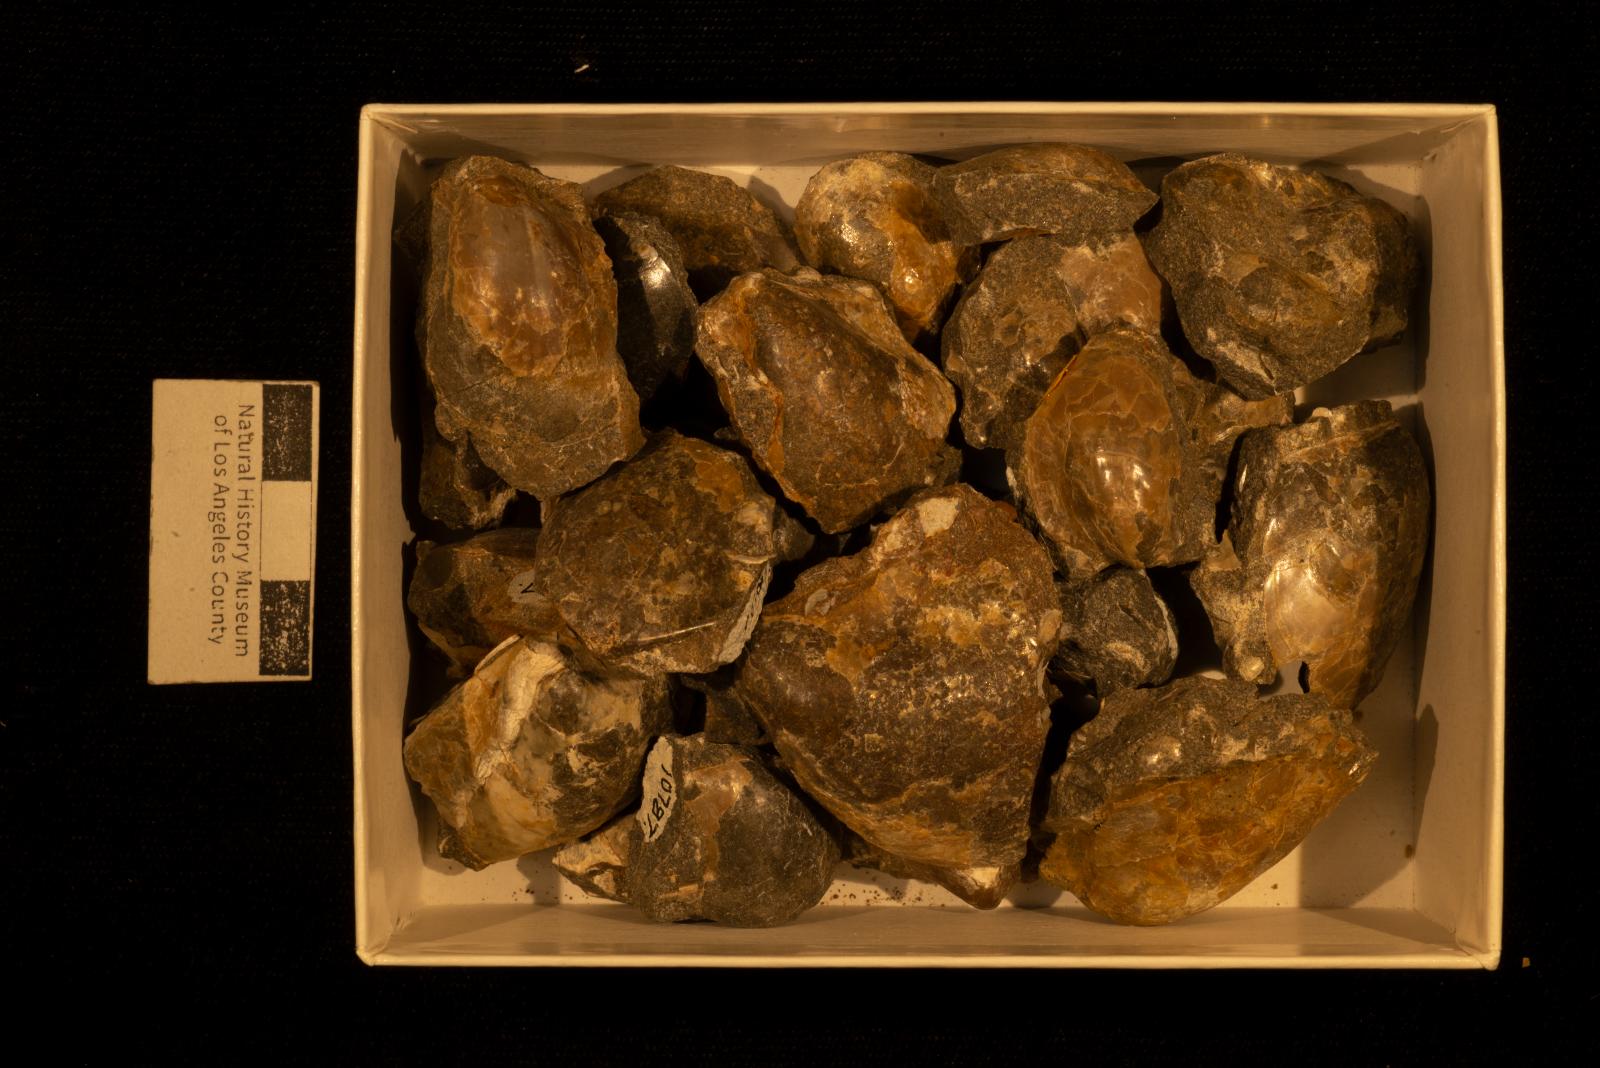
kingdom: Animalia
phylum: Mollusca
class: Bivalvia
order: Ostreida
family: Pteriidae
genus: Pteria
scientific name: Pteria pellucida
